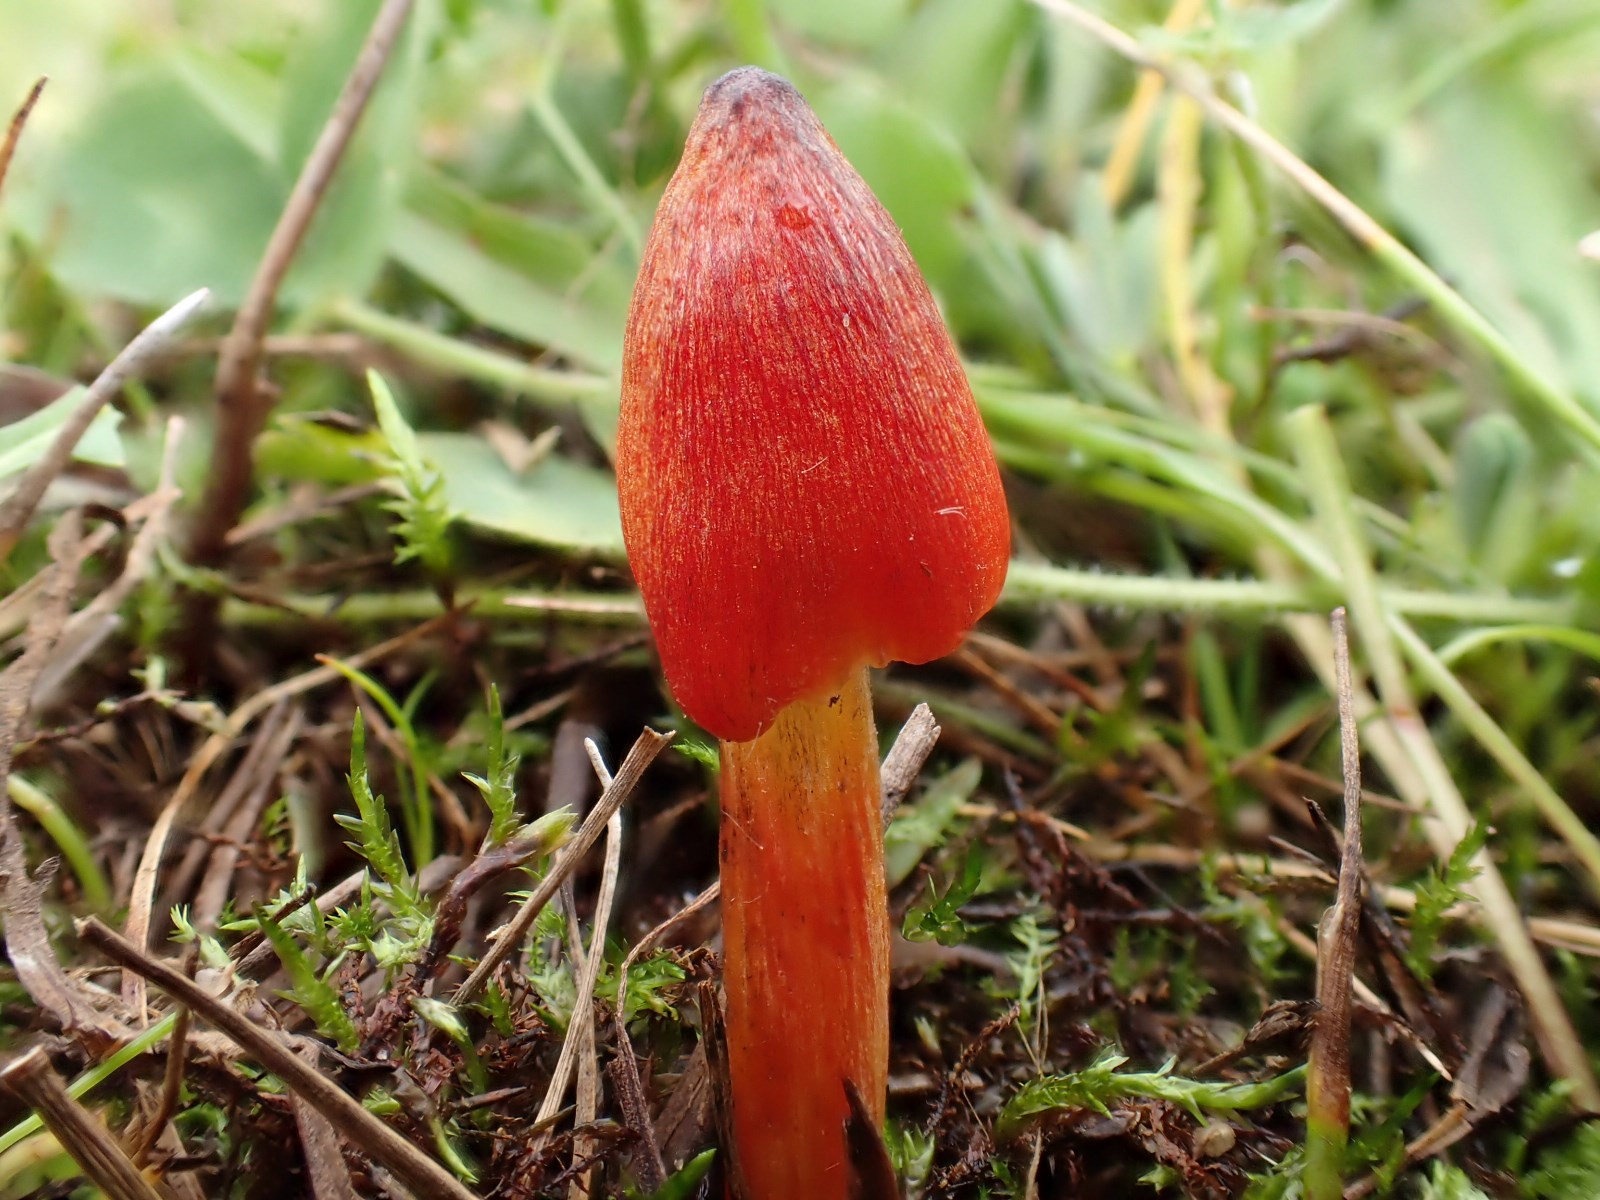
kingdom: Fungi
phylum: Basidiomycota
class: Agaricomycetes
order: Agaricales
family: Hygrophoraceae
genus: Hygrocybe
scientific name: Hygrocybe conica
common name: kegle-vokshat
